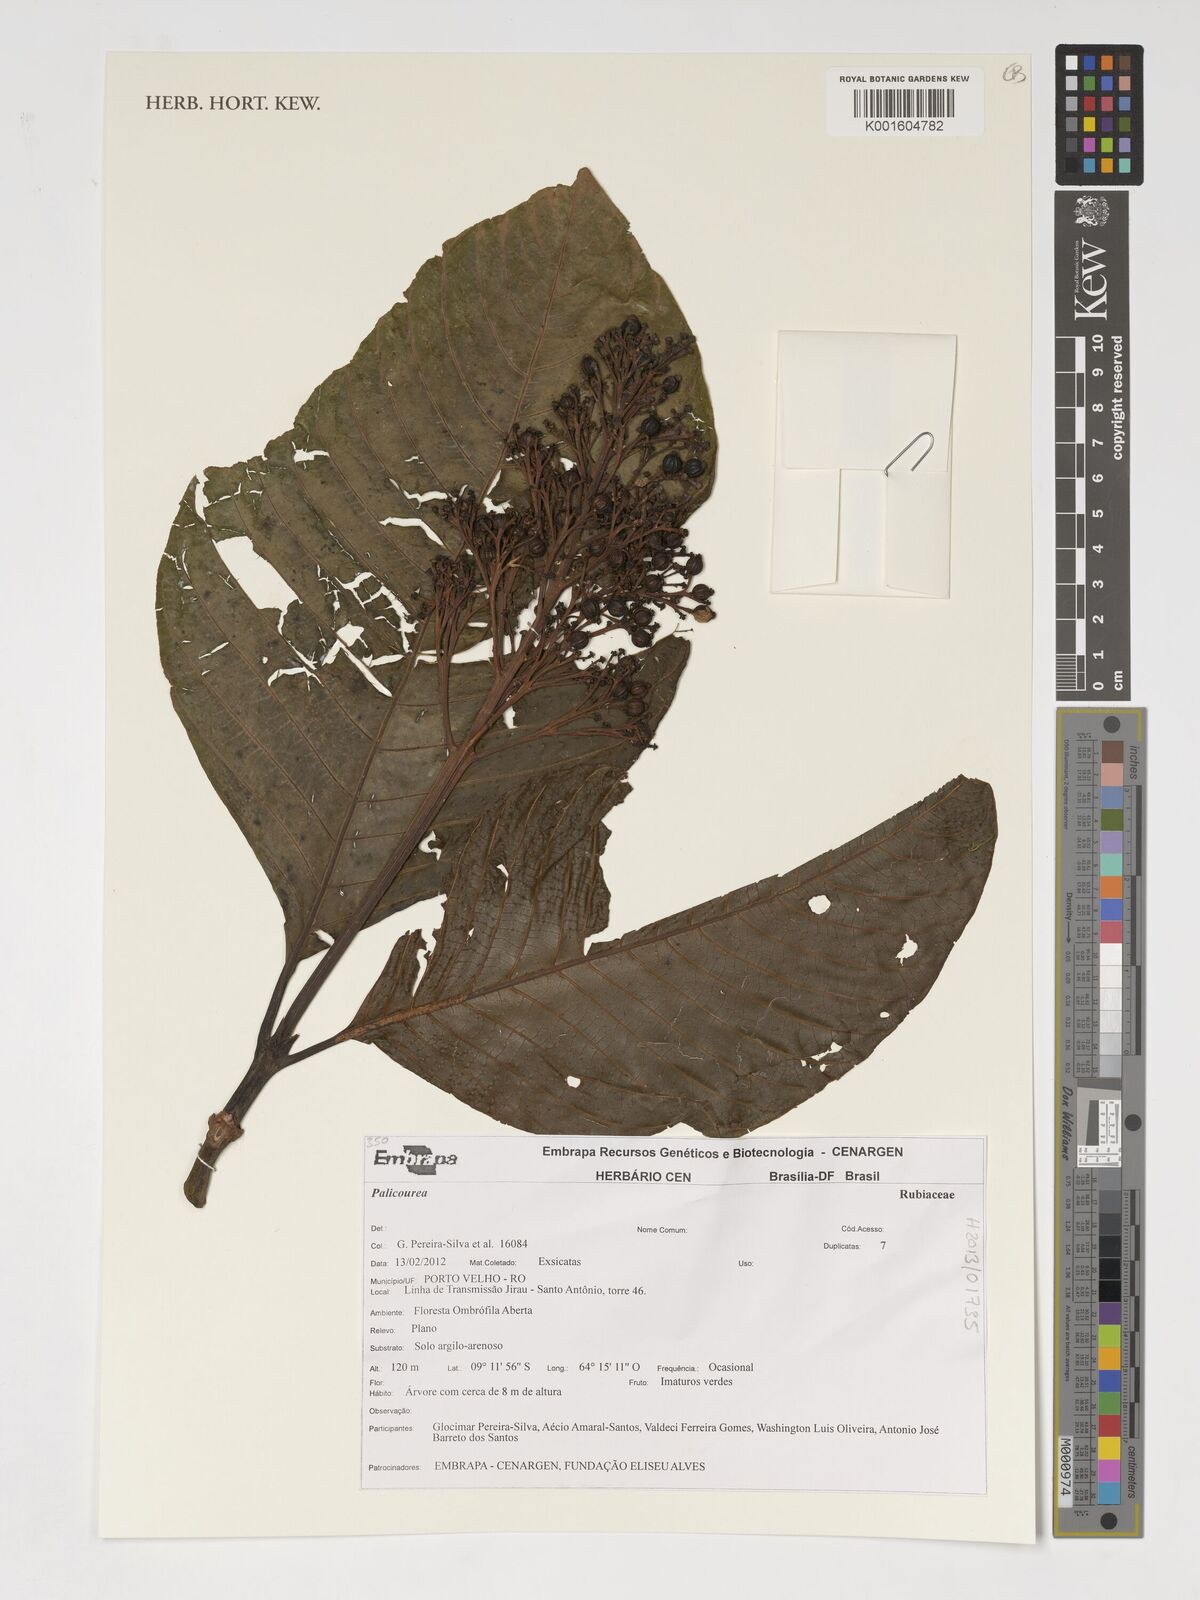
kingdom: Plantae
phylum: Tracheophyta
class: Magnoliopsida
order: Gentianales
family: Rubiaceae
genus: Palicourea
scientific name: Palicourea
